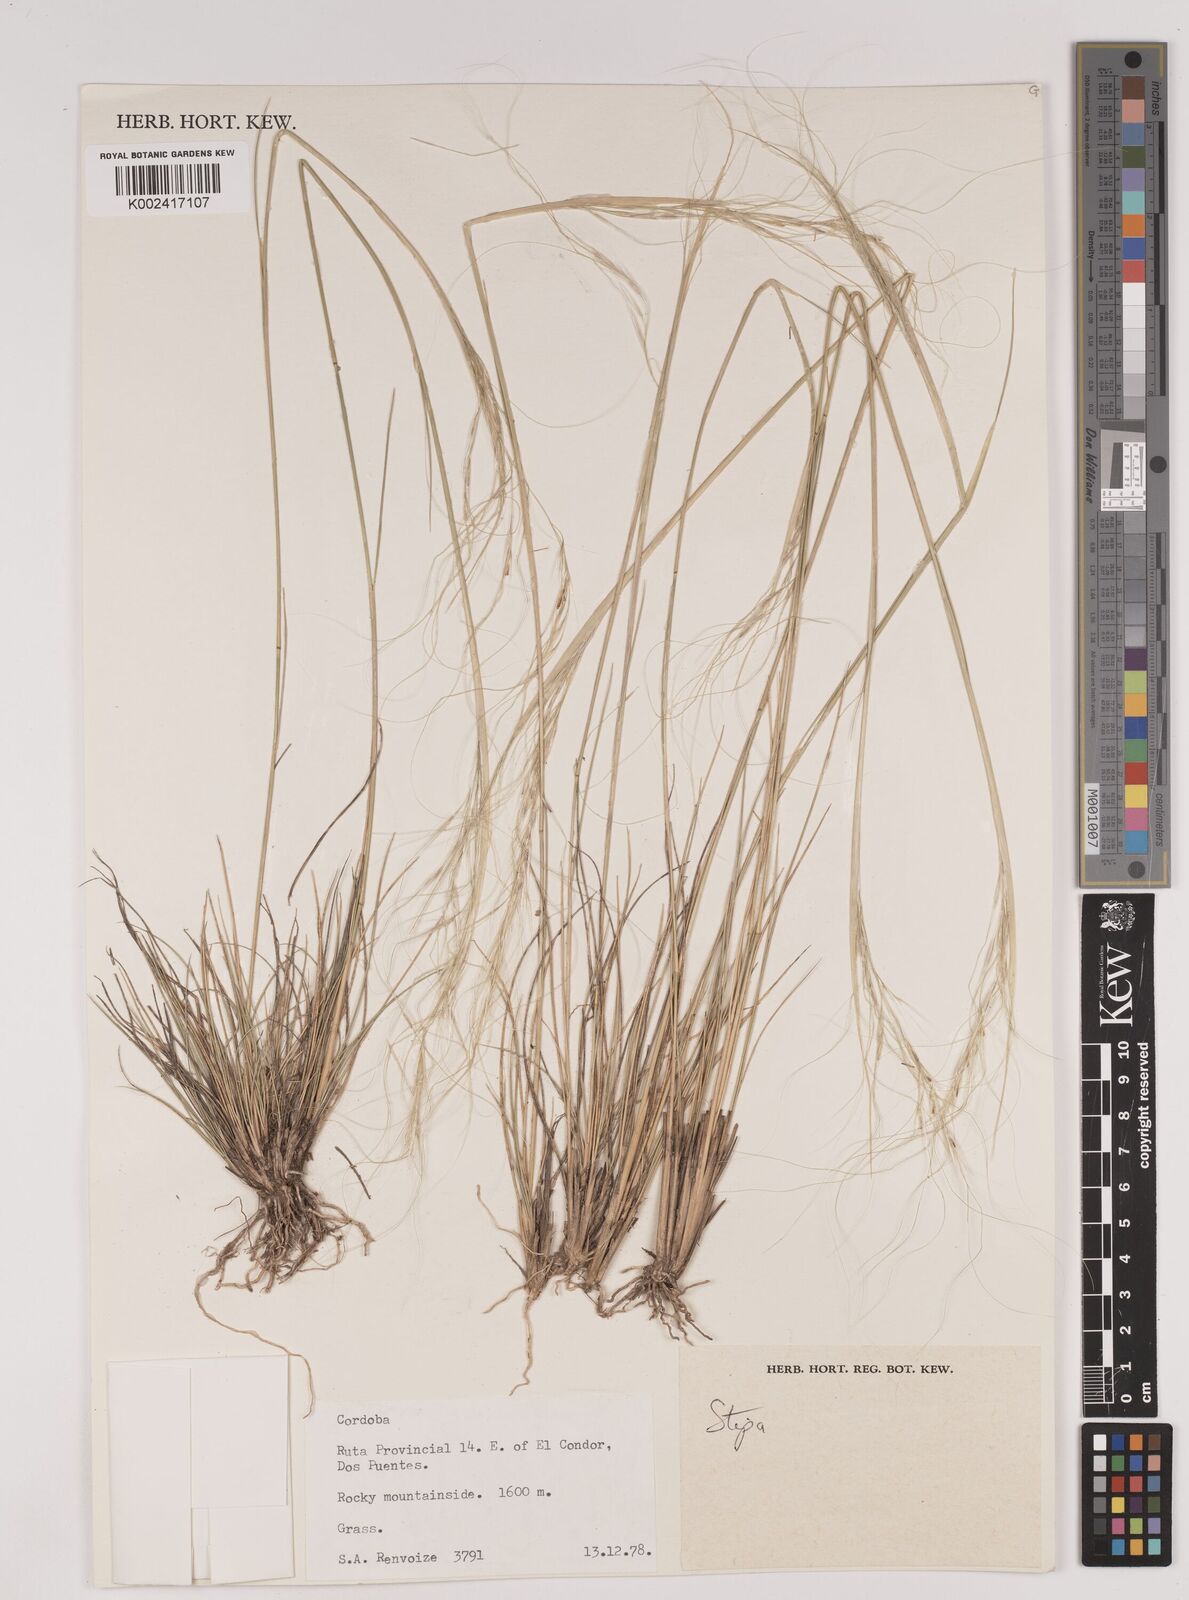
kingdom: Plantae
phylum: Tracheophyta
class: Liliopsida
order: Poales
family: Poaceae
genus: Stipa
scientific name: Stipa
